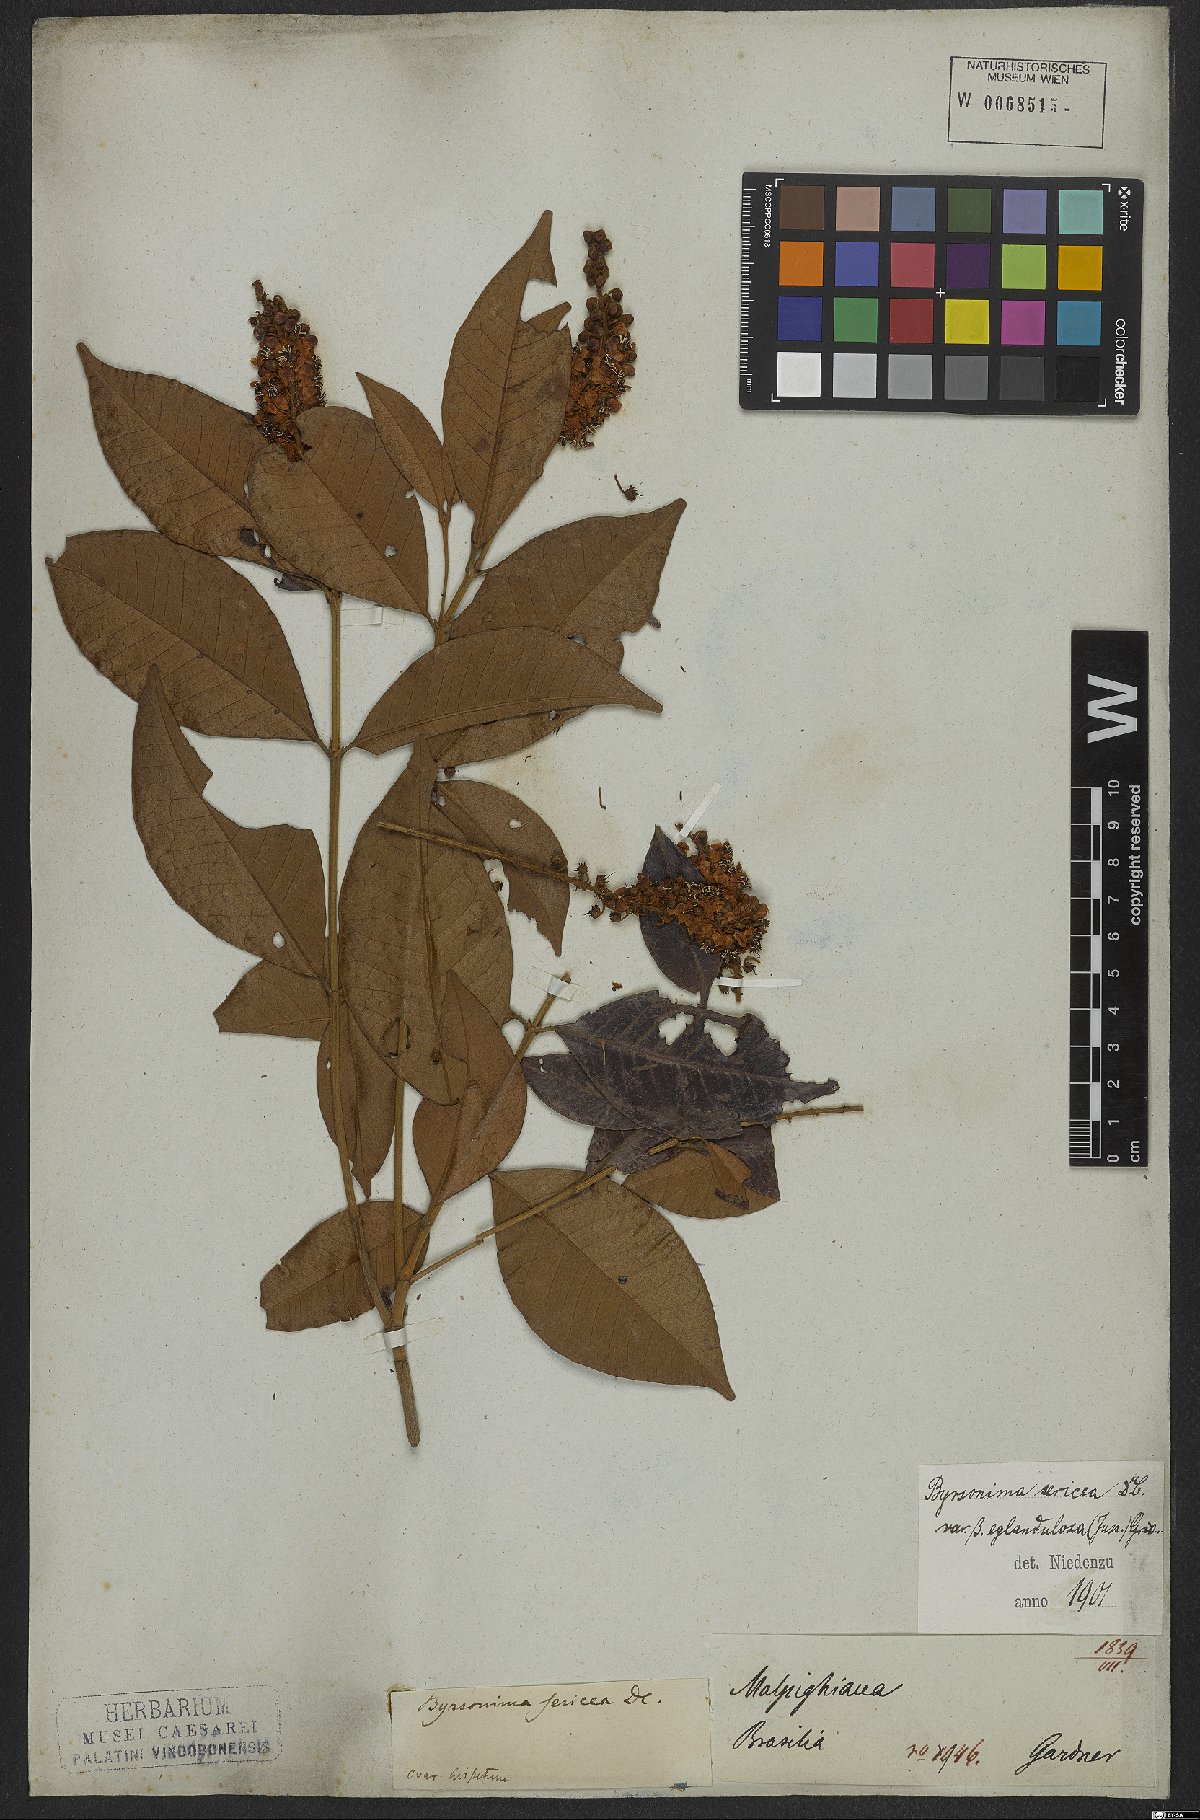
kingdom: Plantae
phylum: Tracheophyta
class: Magnoliopsida
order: Malpighiales
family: Malpighiaceae
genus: Byrsonima
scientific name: Byrsonima sericea
